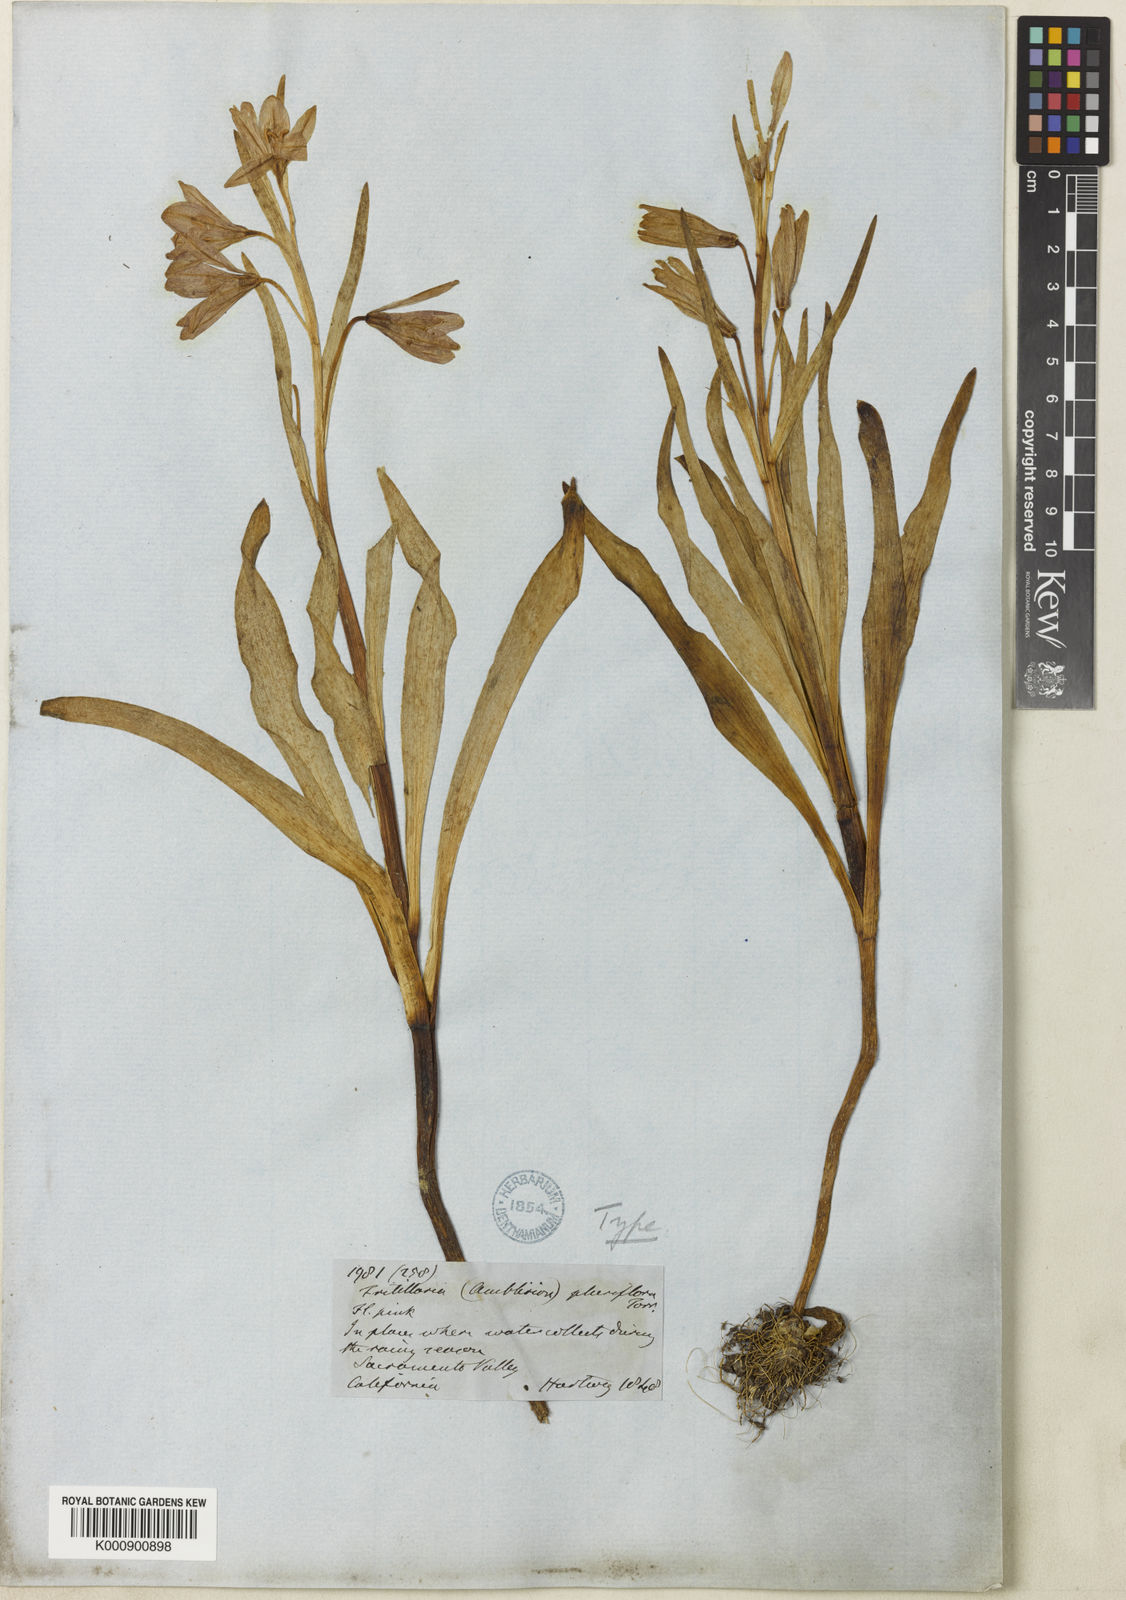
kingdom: Plantae
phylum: Tracheophyta
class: Liliopsida
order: Liliales
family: Liliaceae
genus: Fritillaria
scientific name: Fritillaria pluriflora
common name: Adobe-lily
